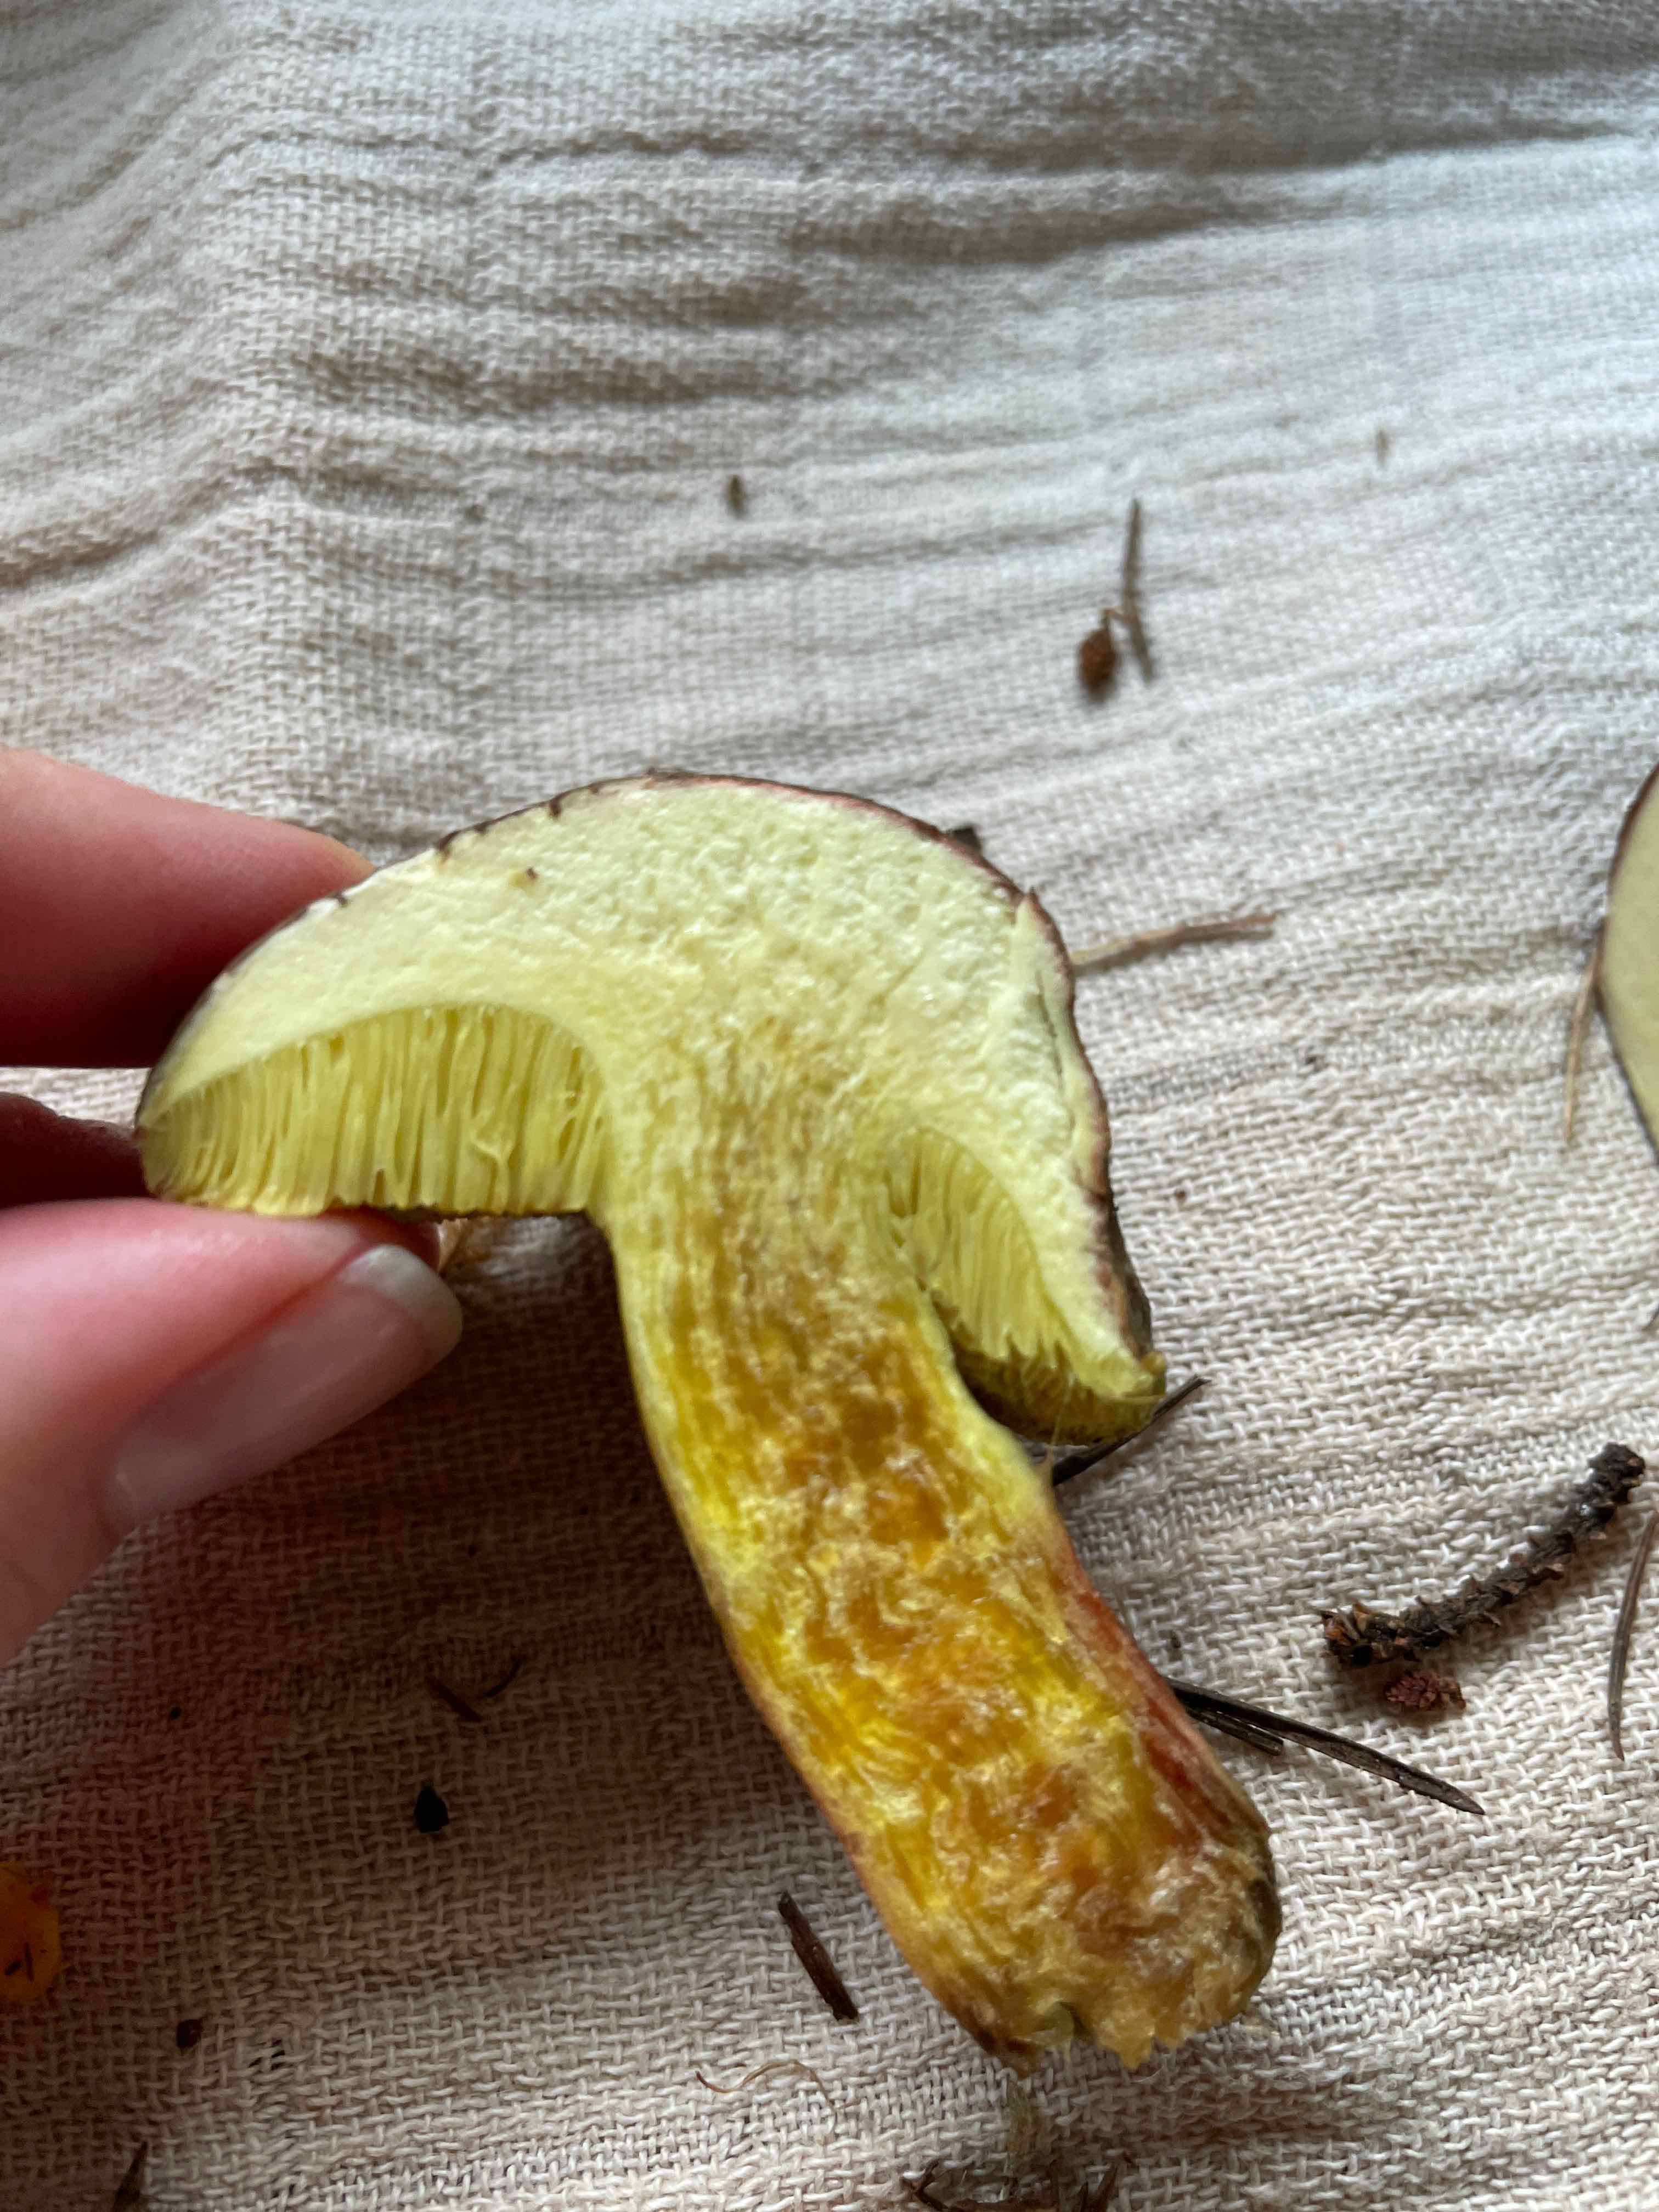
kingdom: Fungi
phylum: Basidiomycota
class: Agaricomycetes
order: Boletales
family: Boletaceae
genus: Xerocomellus
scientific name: Xerocomellus
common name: dværgrørhat
